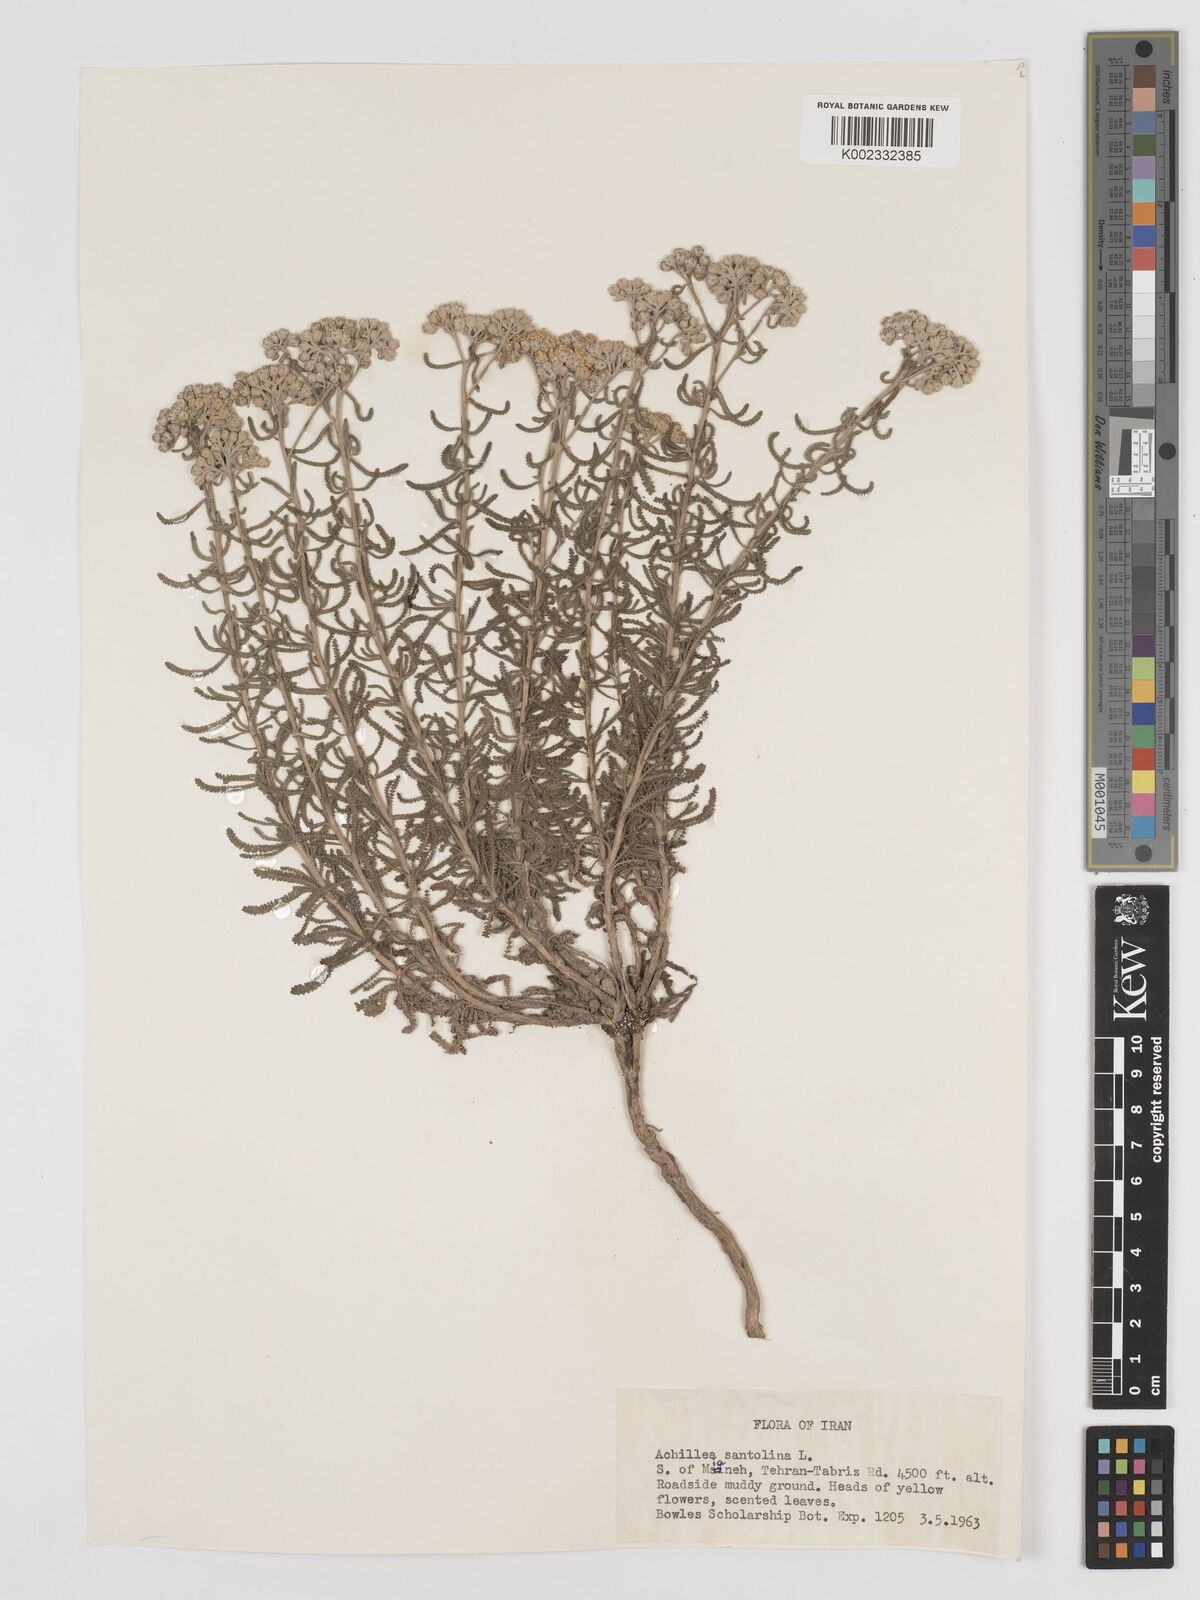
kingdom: Plantae
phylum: Tracheophyta
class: Magnoliopsida
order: Asterales
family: Asteraceae
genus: Achillea
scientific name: Achillea cretica
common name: Chamomile-leaved lavender-cotton
